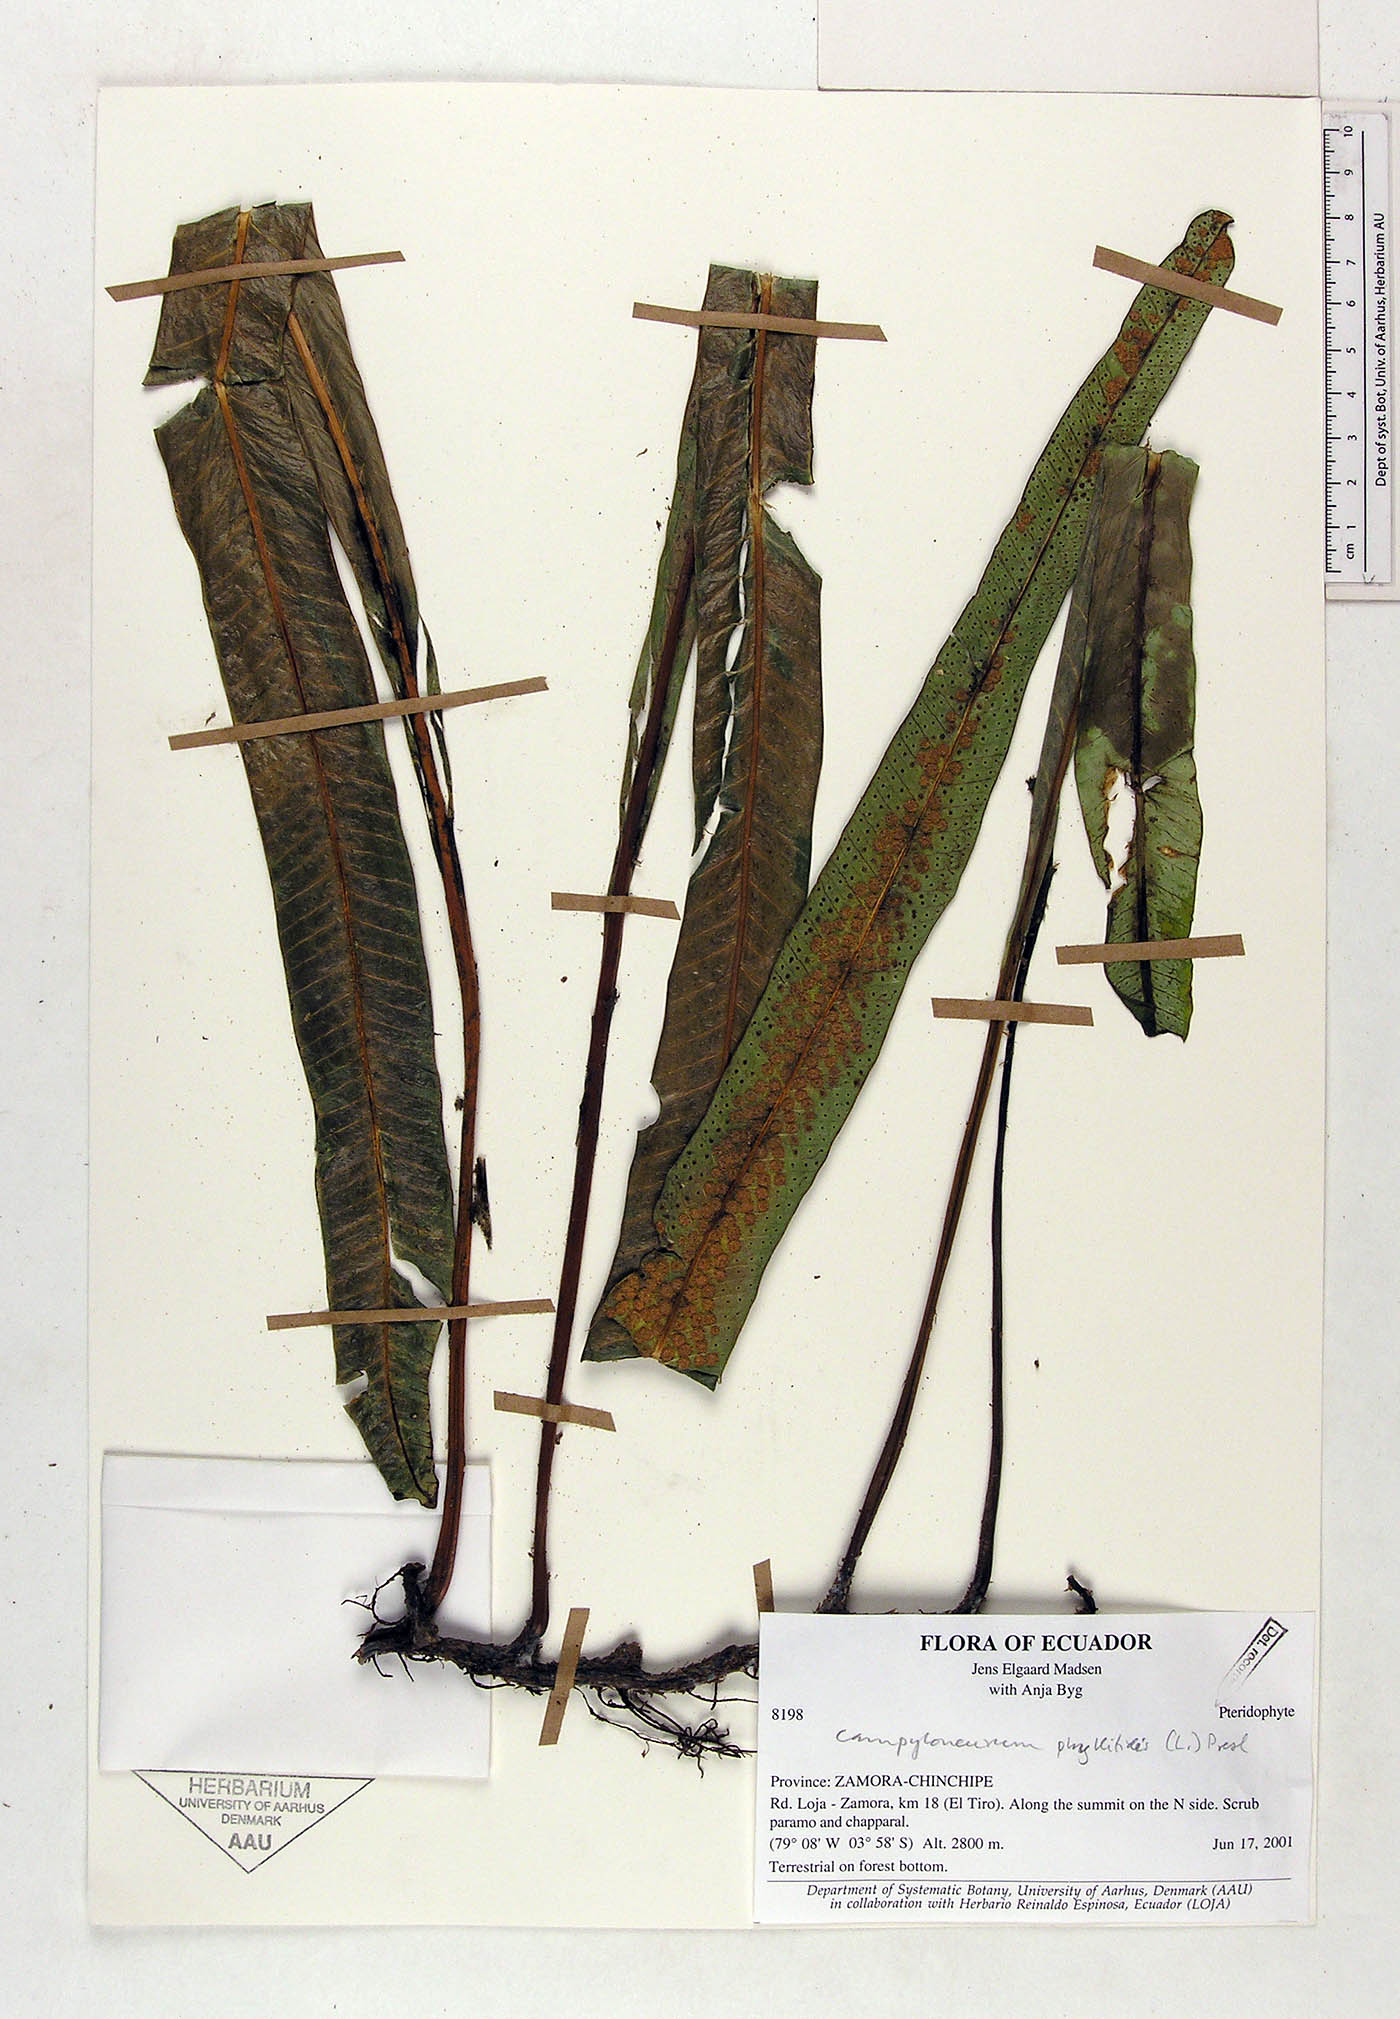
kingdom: Plantae
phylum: Tracheophyta
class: Polypodiopsida
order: Polypodiales
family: Polypodiaceae
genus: Campyloneurum
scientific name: Campyloneurum phyllitidis
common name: Cow-tongue fern
